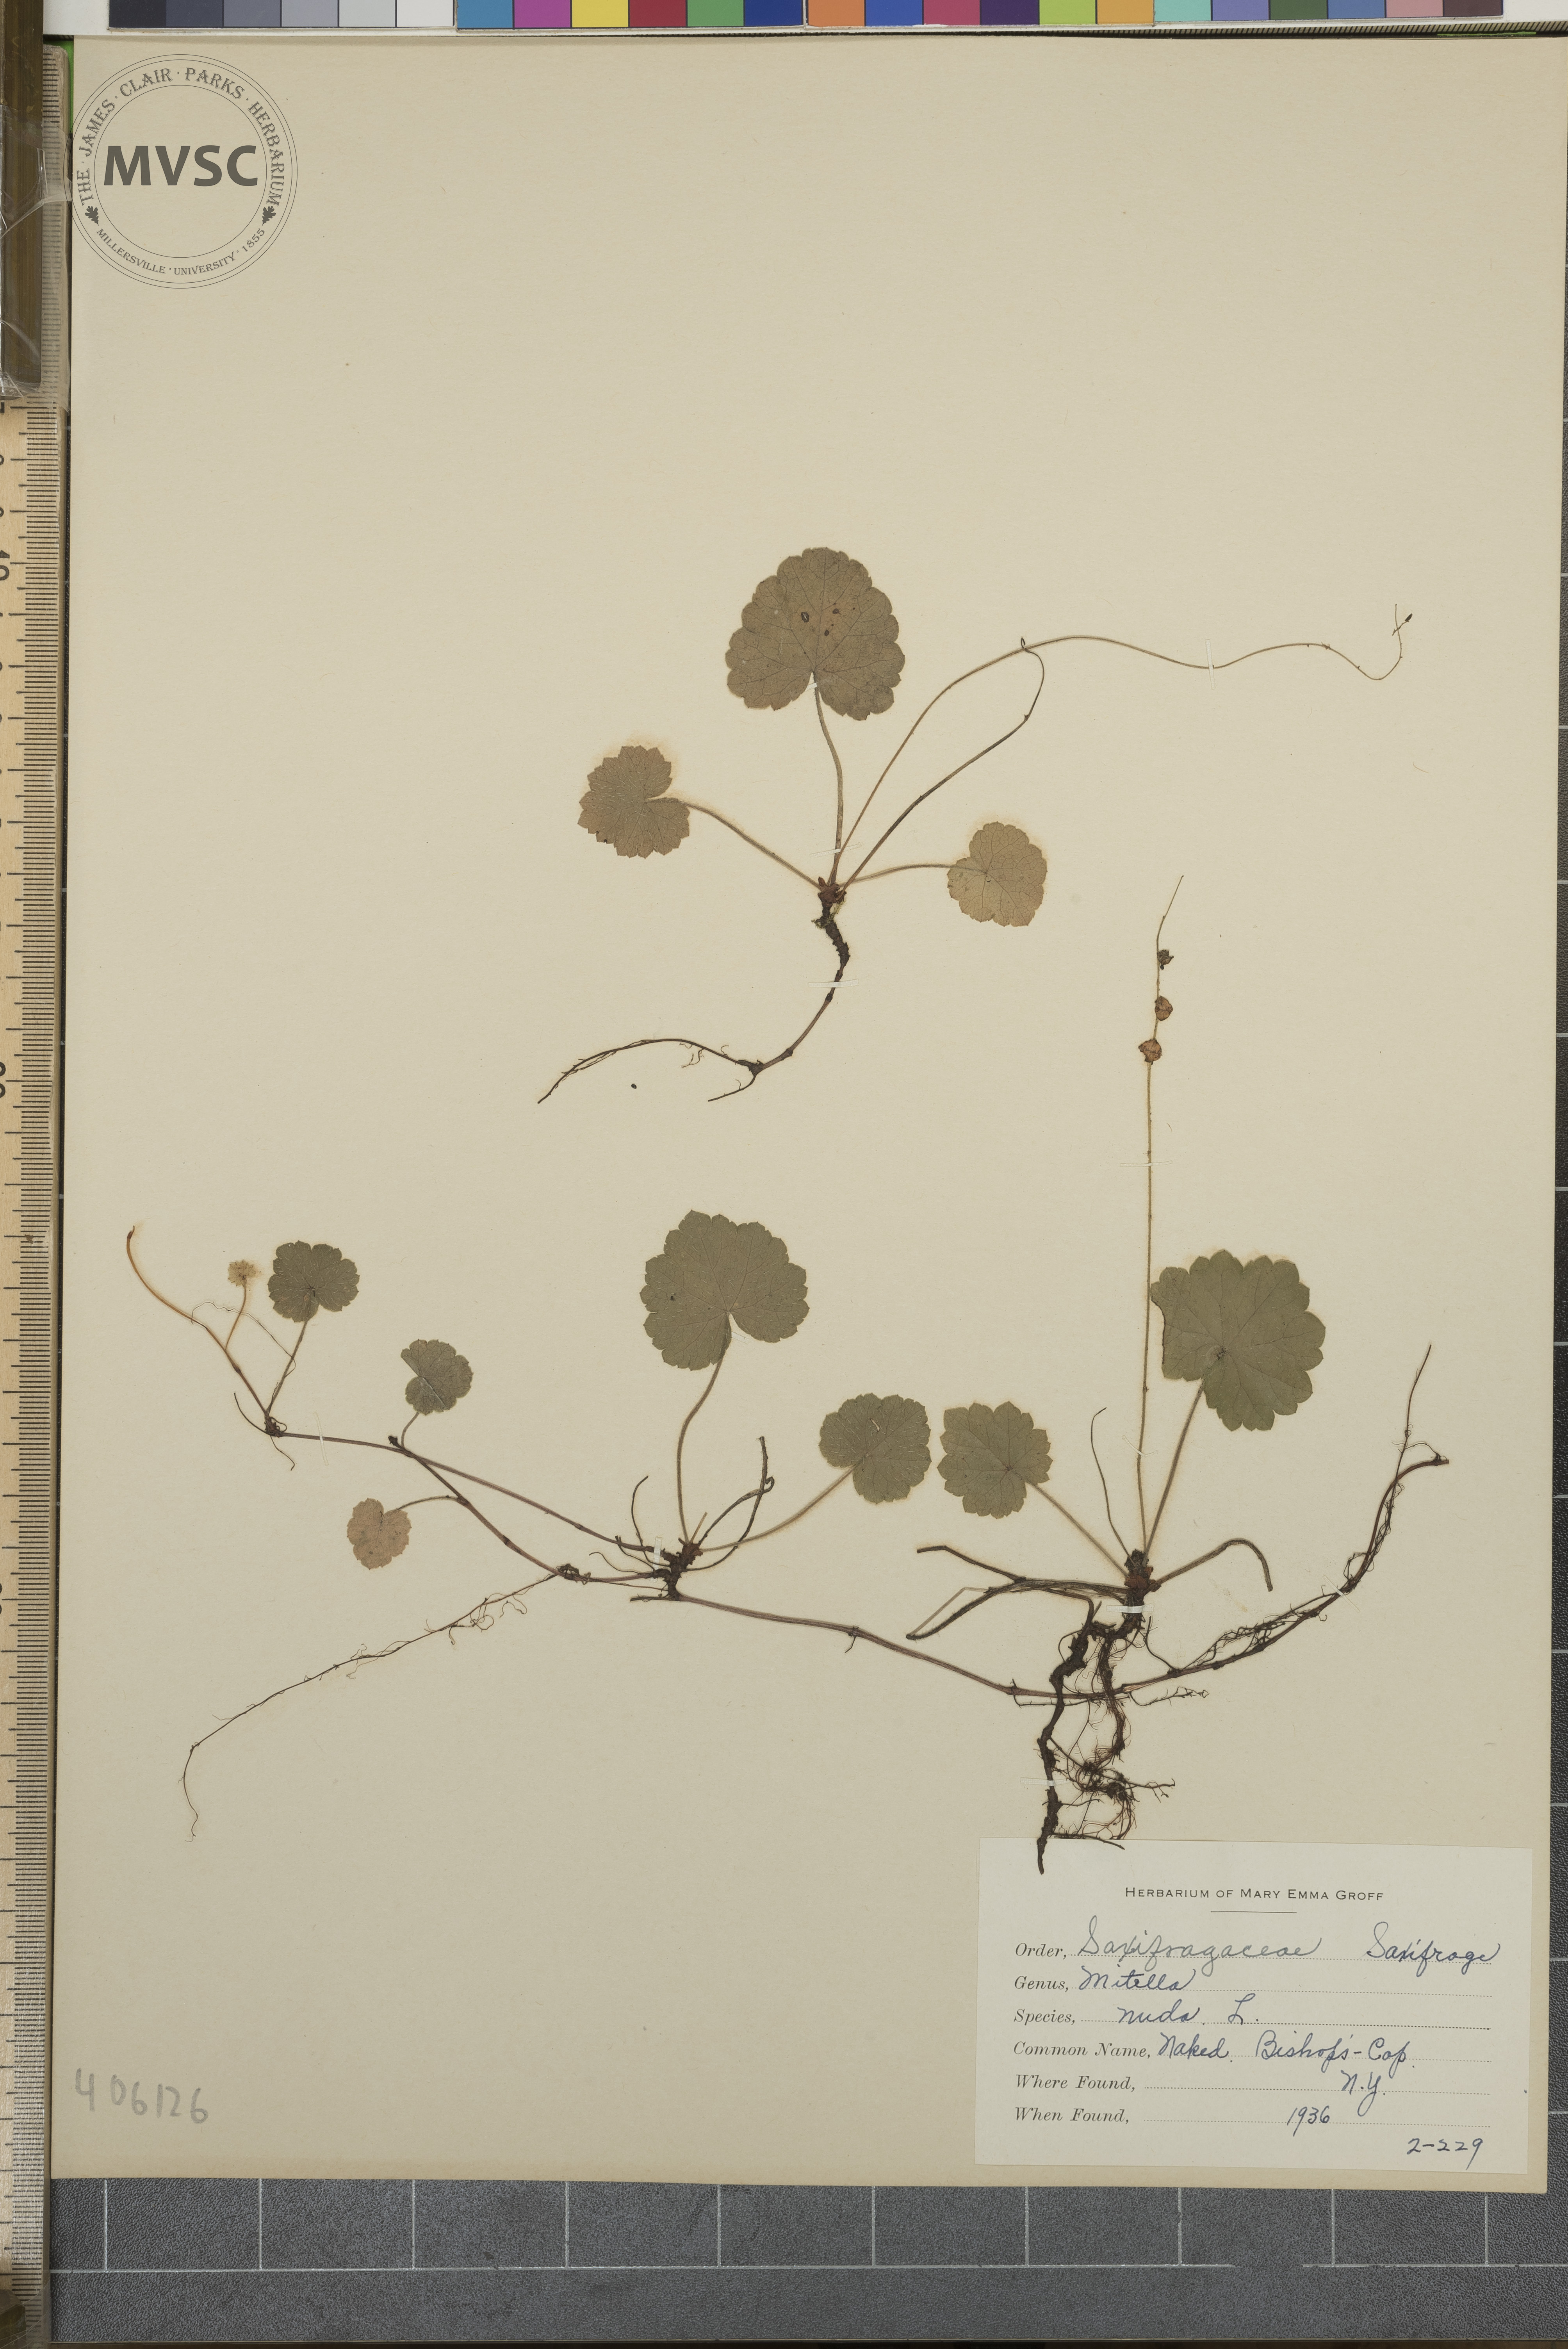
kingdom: Plantae
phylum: Tracheophyta
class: Magnoliopsida
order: Saxifragales
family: Saxifragaceae
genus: Mitella
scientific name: Mitella nuda
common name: Bare-stemmed bishop's-cap
